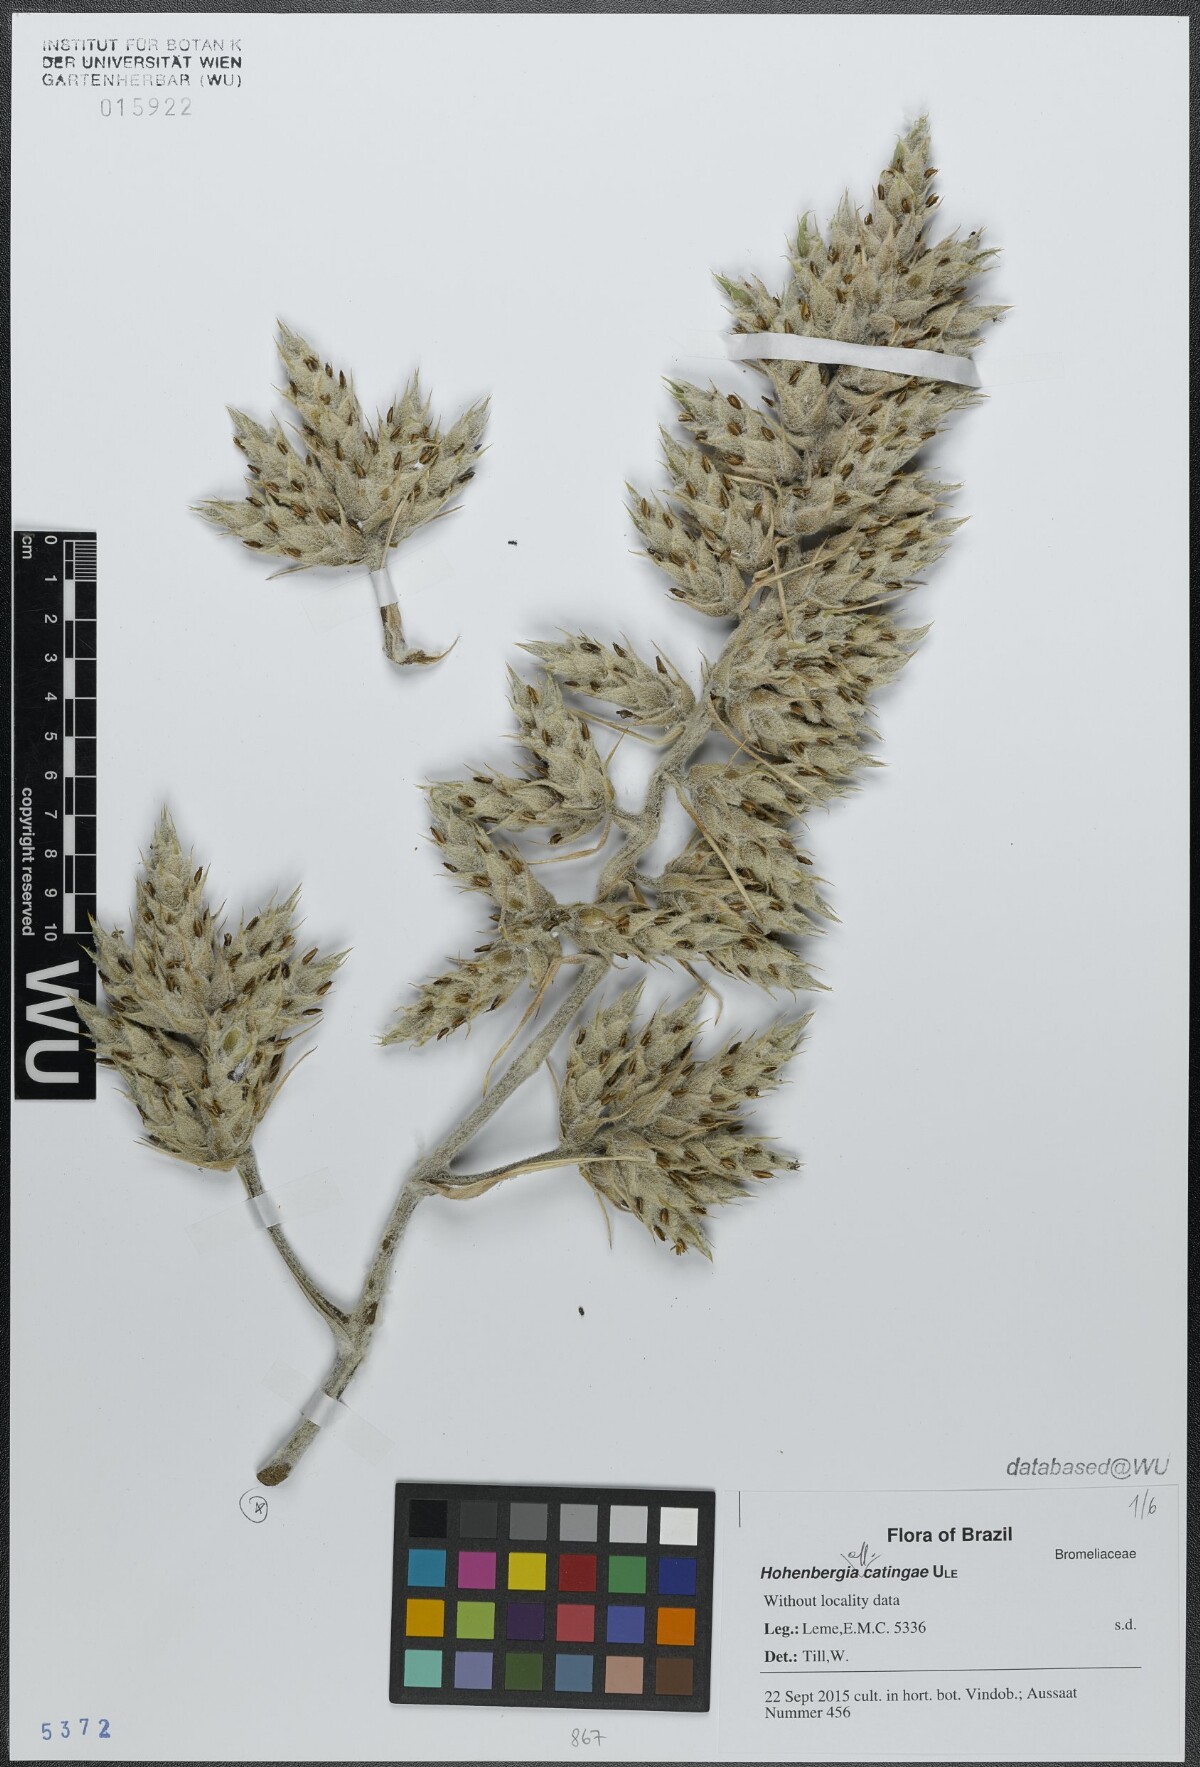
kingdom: Plantae
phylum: Tracheophyta
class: Liliopsida
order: Poales
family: Bromeliaceae
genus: Hohenbergia
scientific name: Hohenbergia catingae
